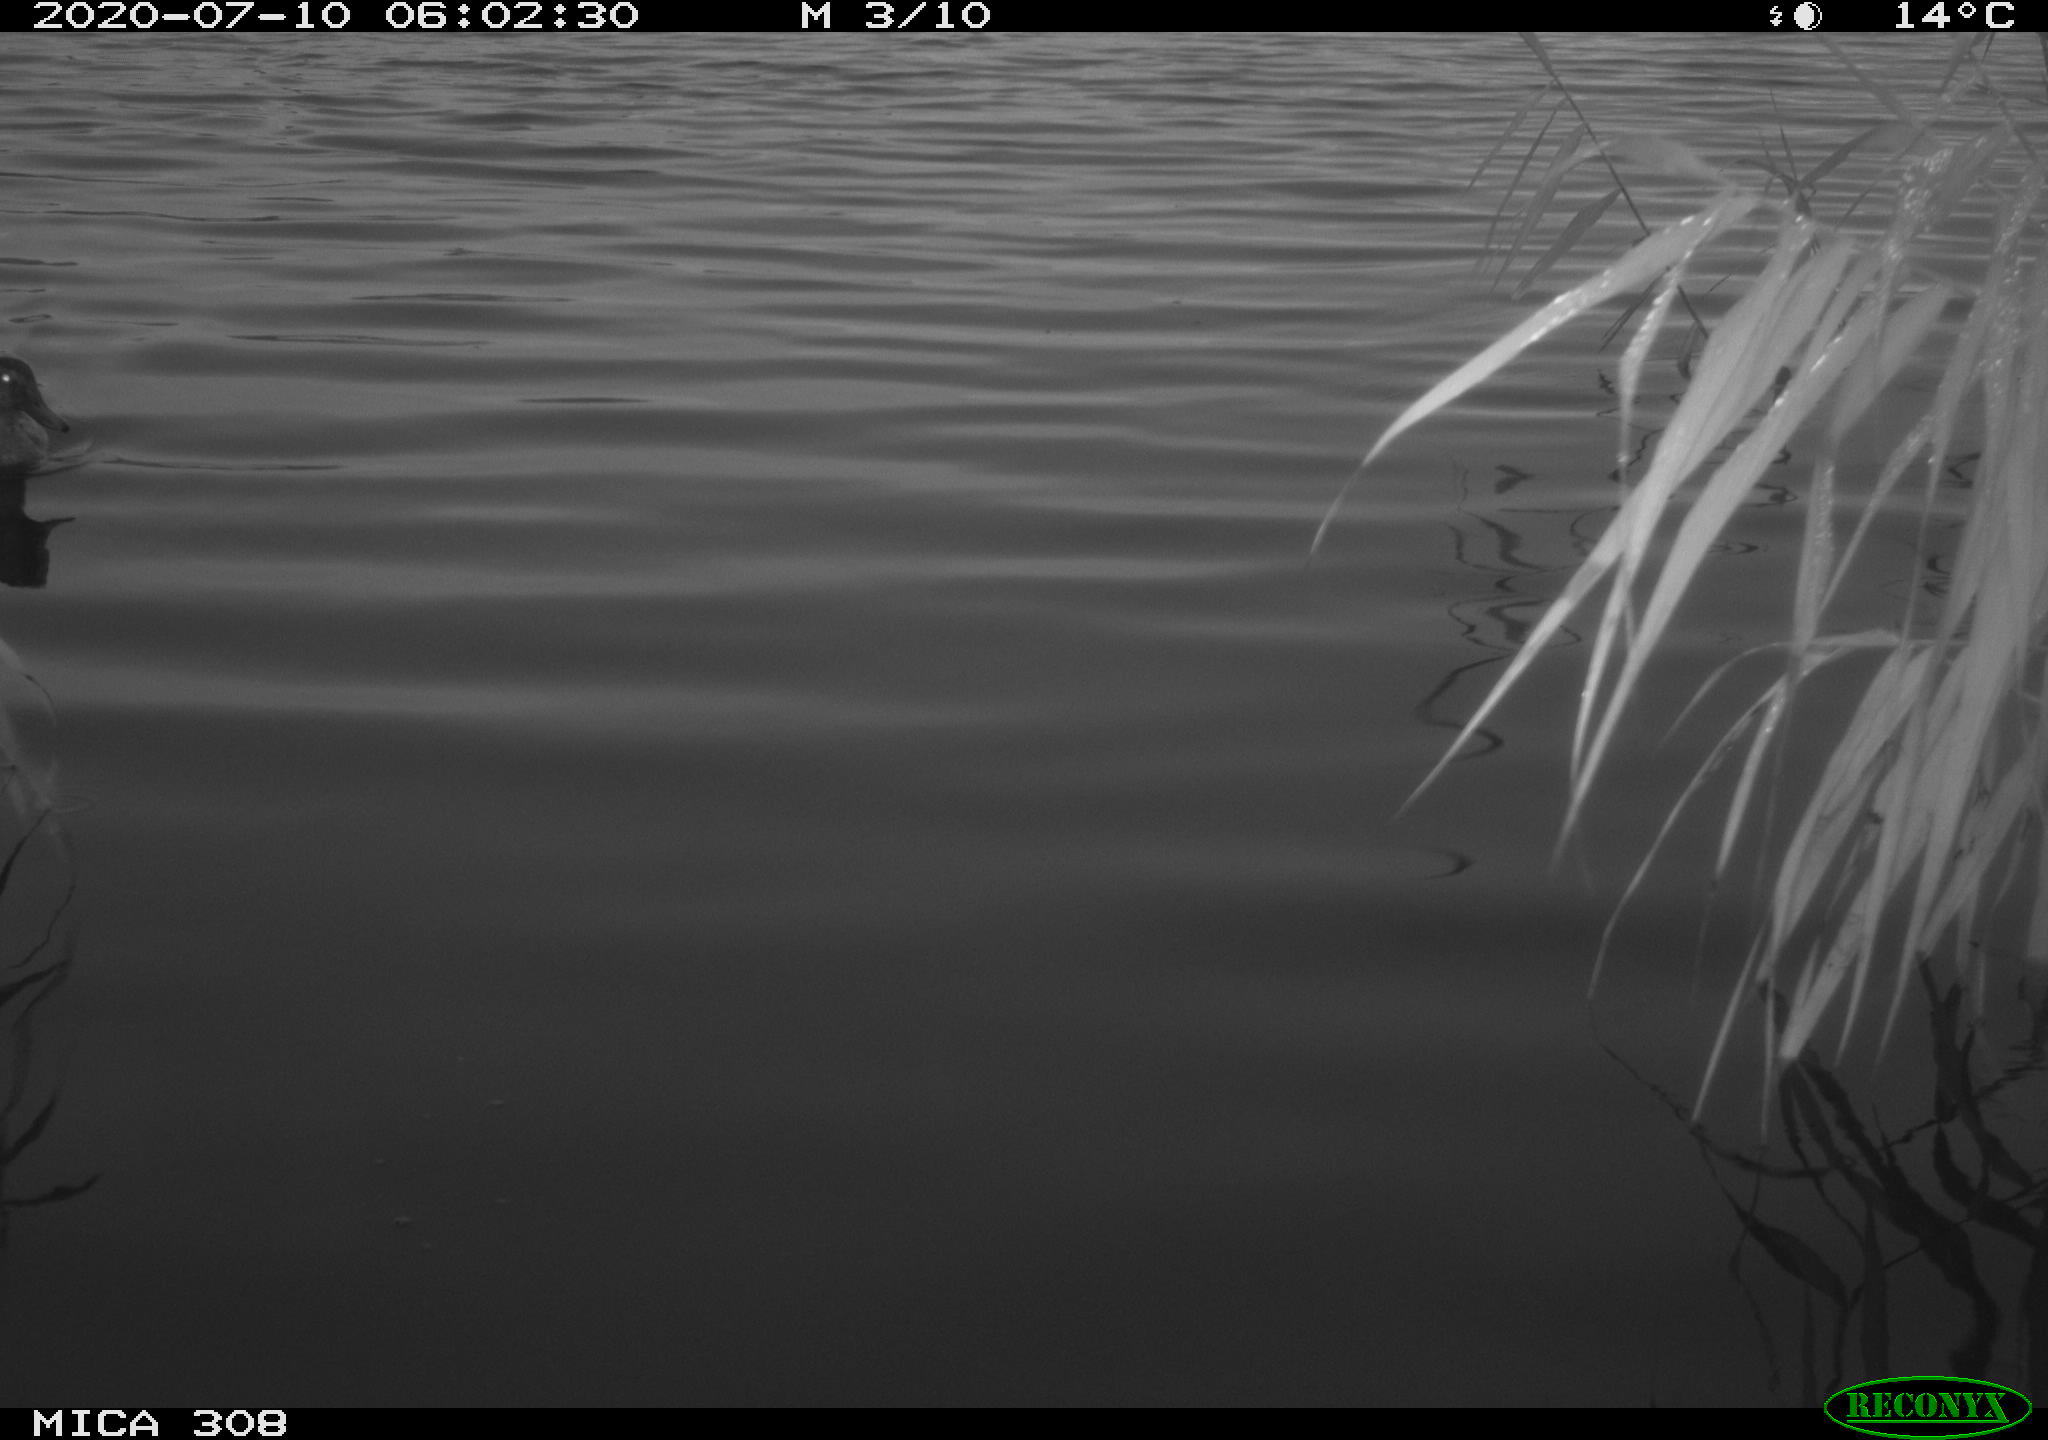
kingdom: Animalia
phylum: Chordata
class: Aves
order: Anseriformes
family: Anatidae
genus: Anas
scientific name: Anas platyrhynchos
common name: Mallard
